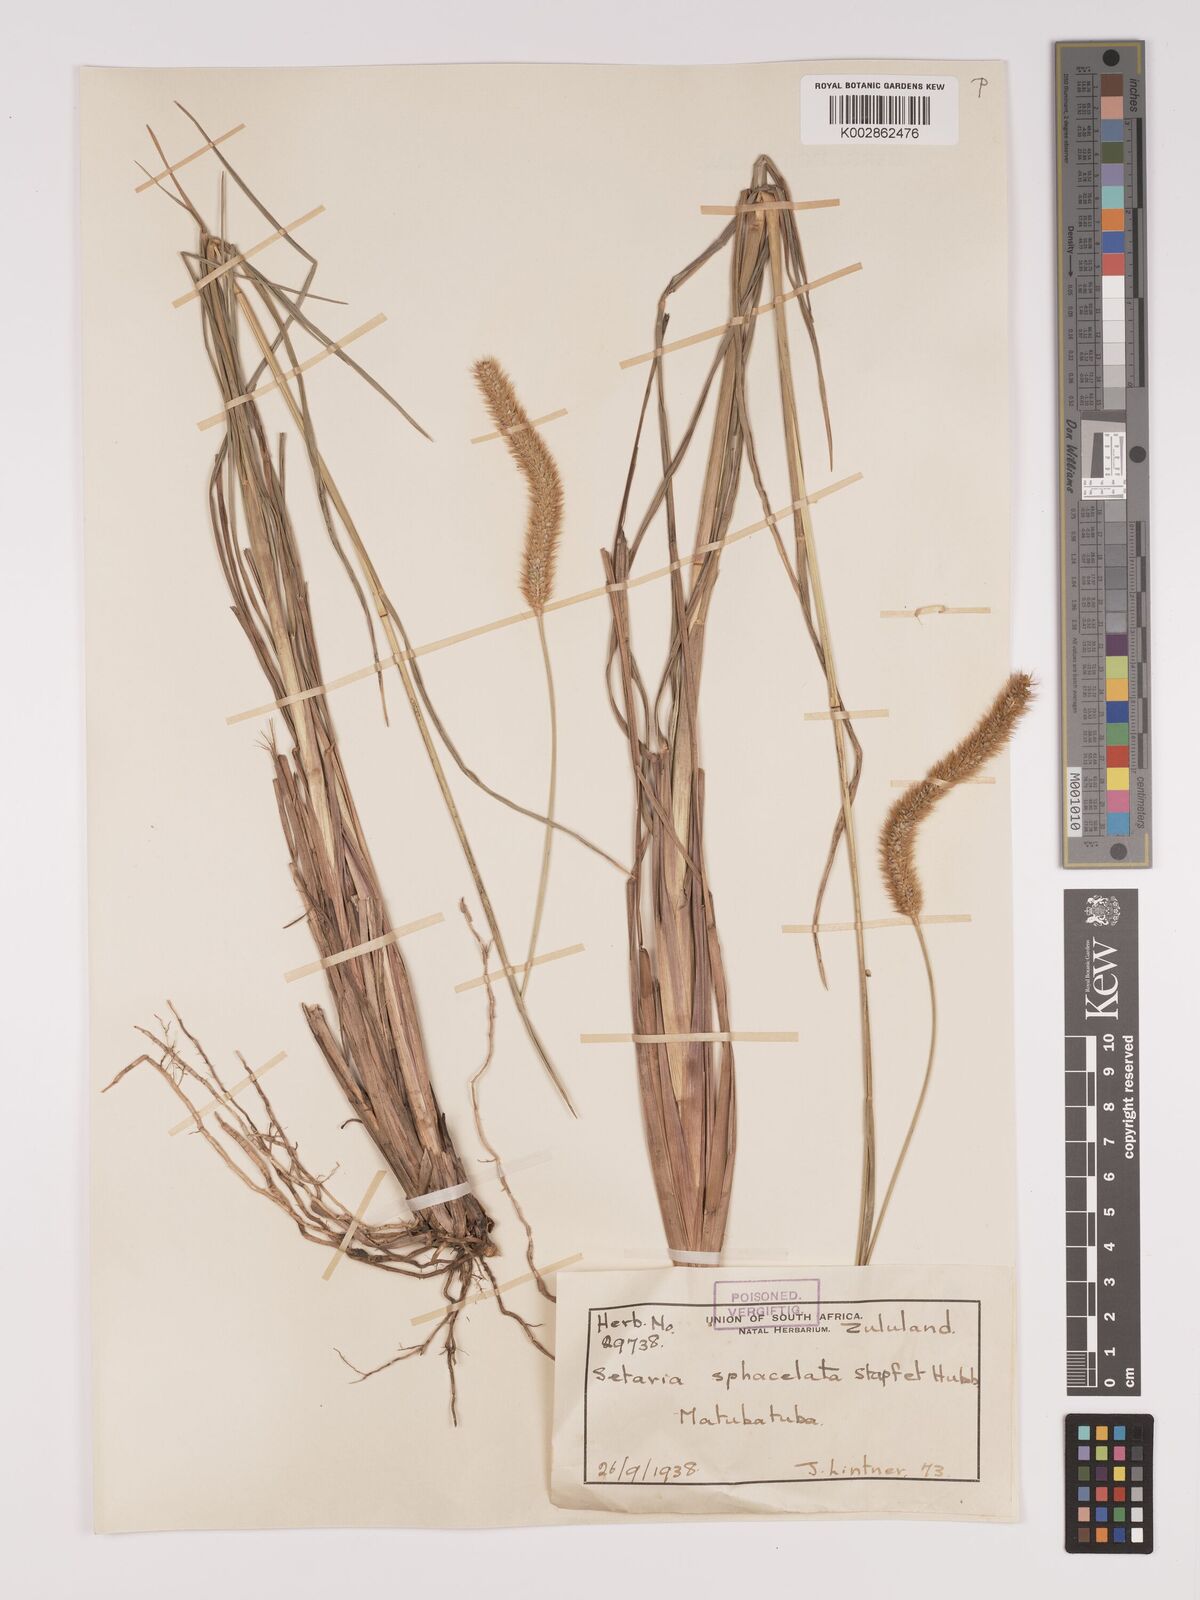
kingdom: Plantae
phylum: Tracheophyta
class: Liliopsida
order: Poales
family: Poaceae
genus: Setaria
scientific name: Setaria sphacelata
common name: African bristlegrass
